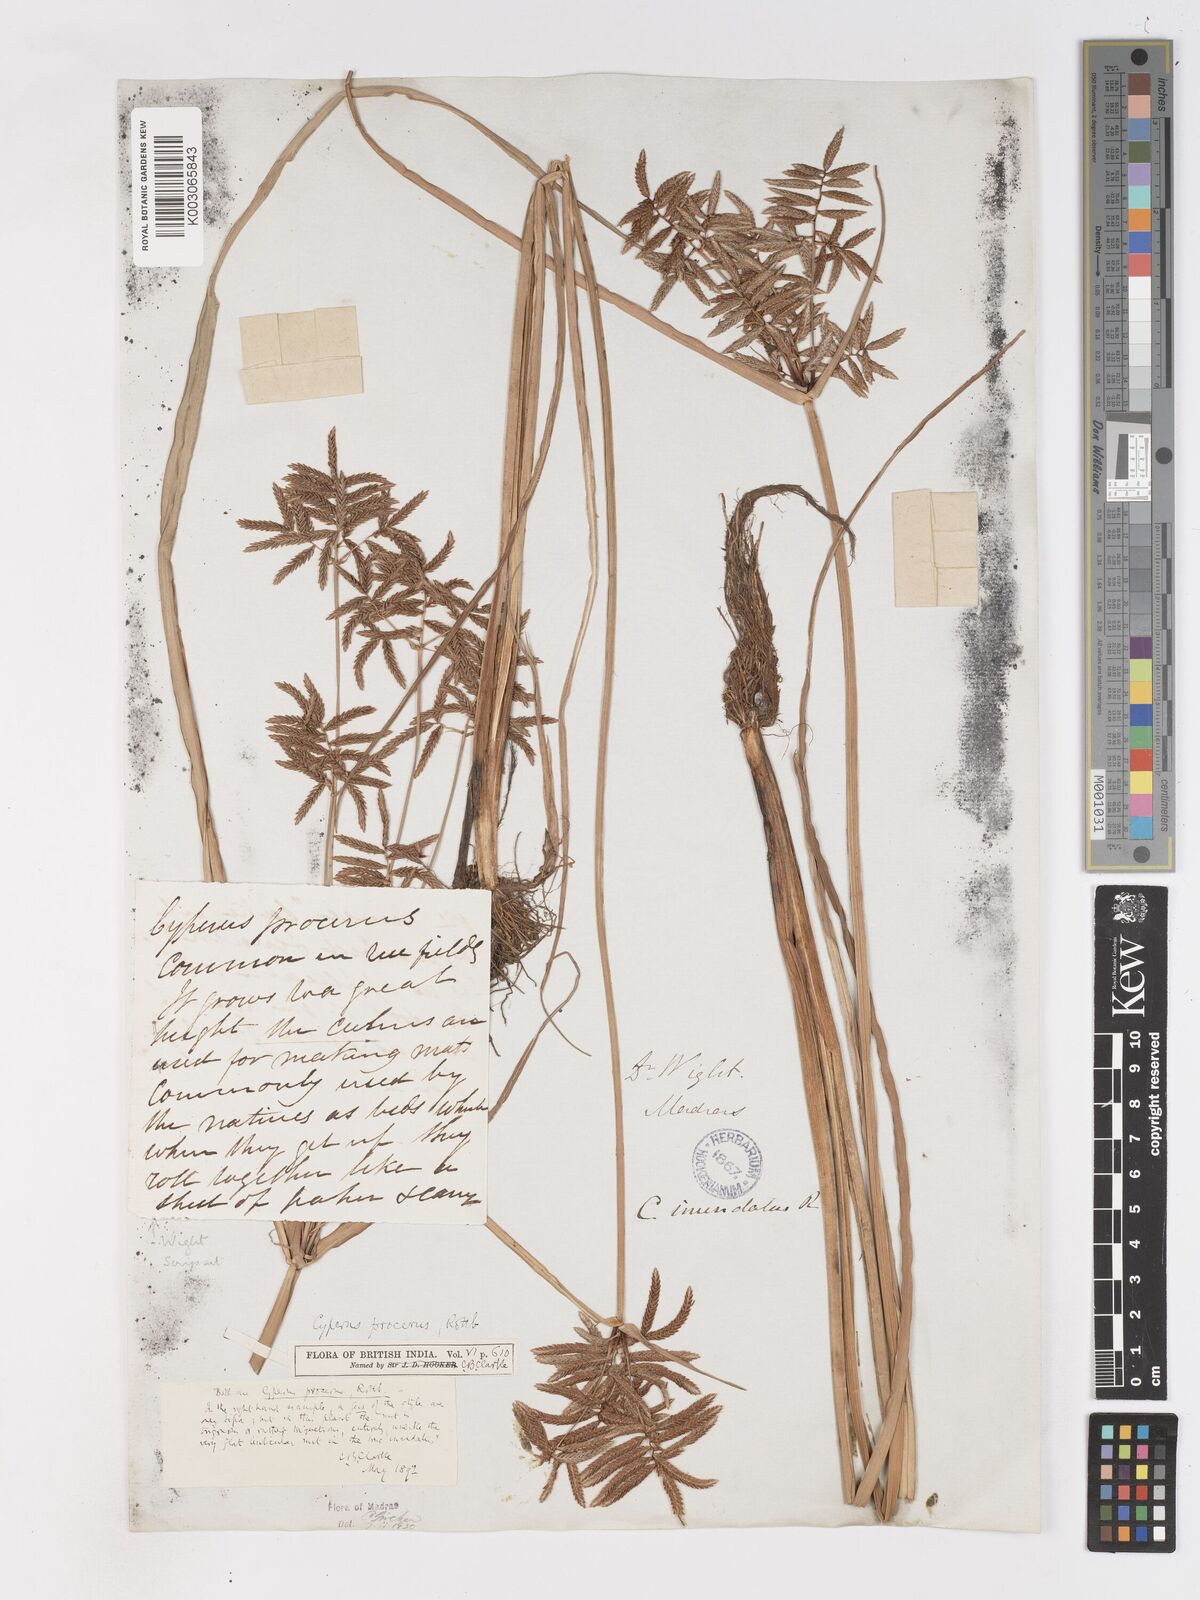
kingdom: Plantae
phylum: Tracheophyta
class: Liliopsida
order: Poales
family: Cyperaceae
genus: Cyperus
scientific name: Cyperus procerus
